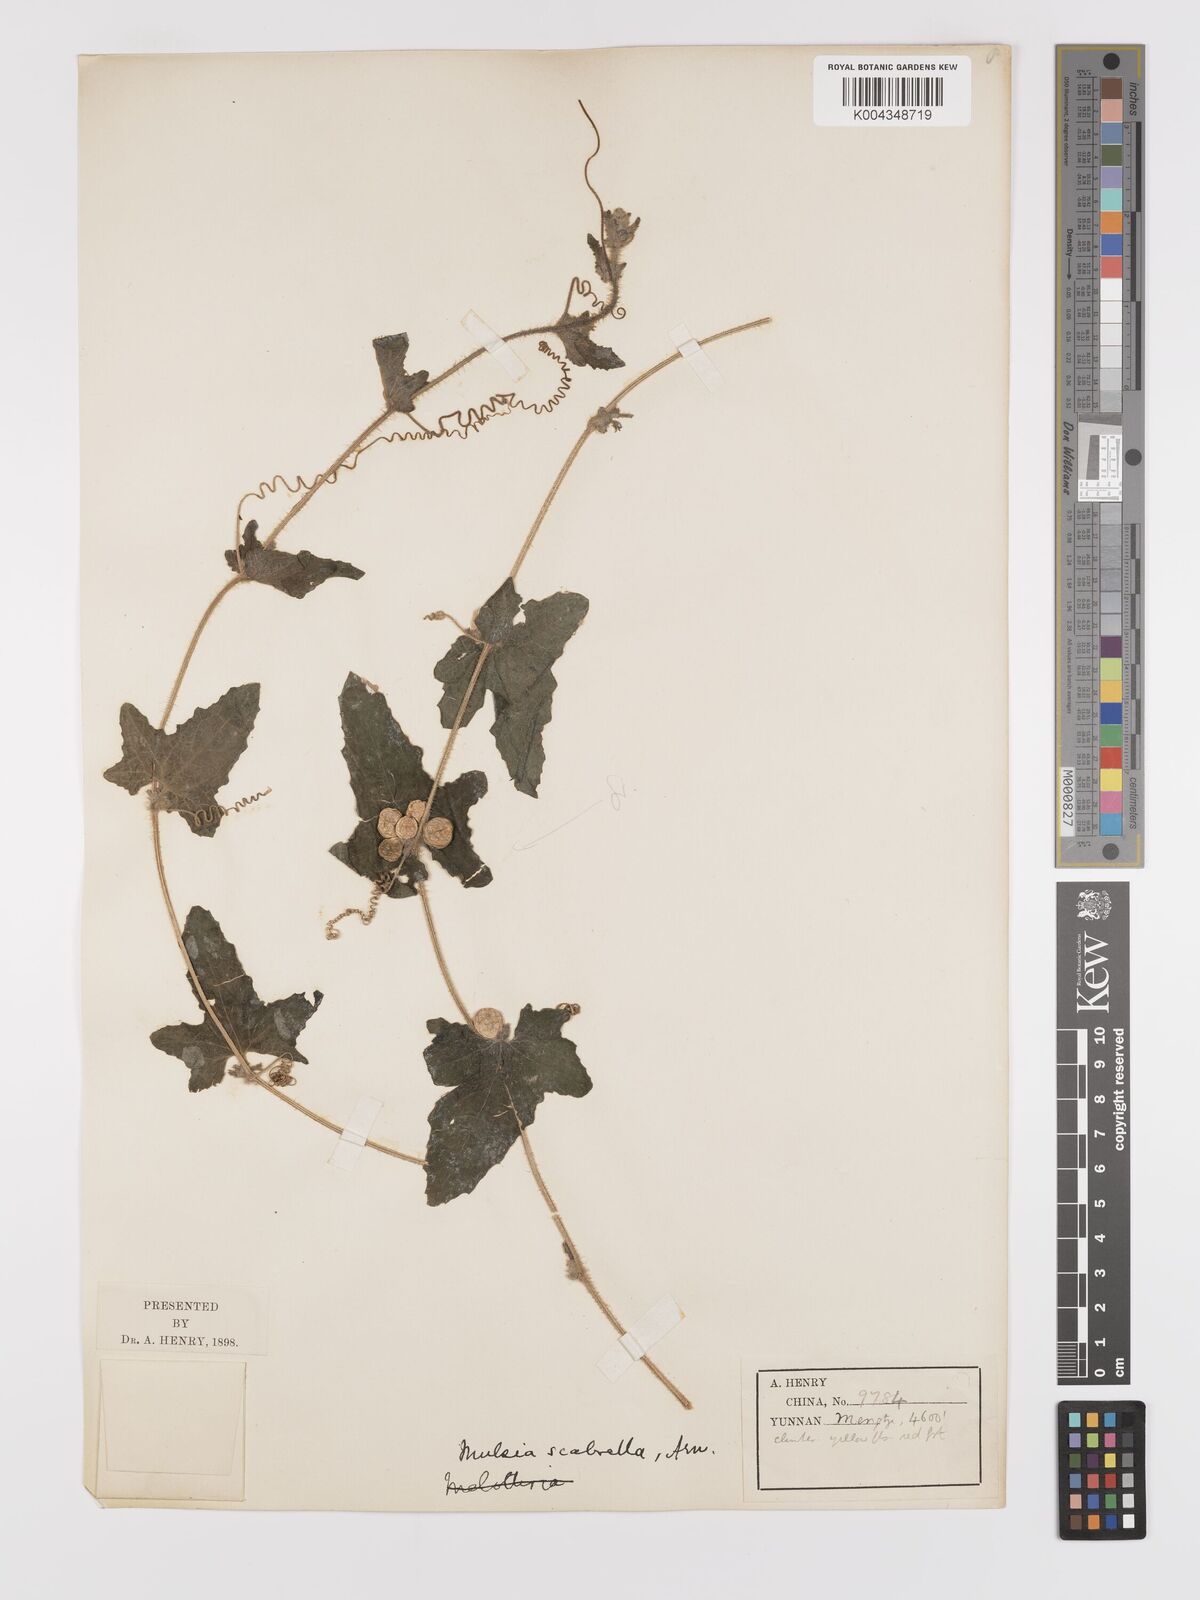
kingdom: Plantae
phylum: Tracheophyta
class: Magnoliopsida
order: Cucurbitales
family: Cucurbitaceae
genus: Cucumis
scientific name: Cucumis maderaspatanus
